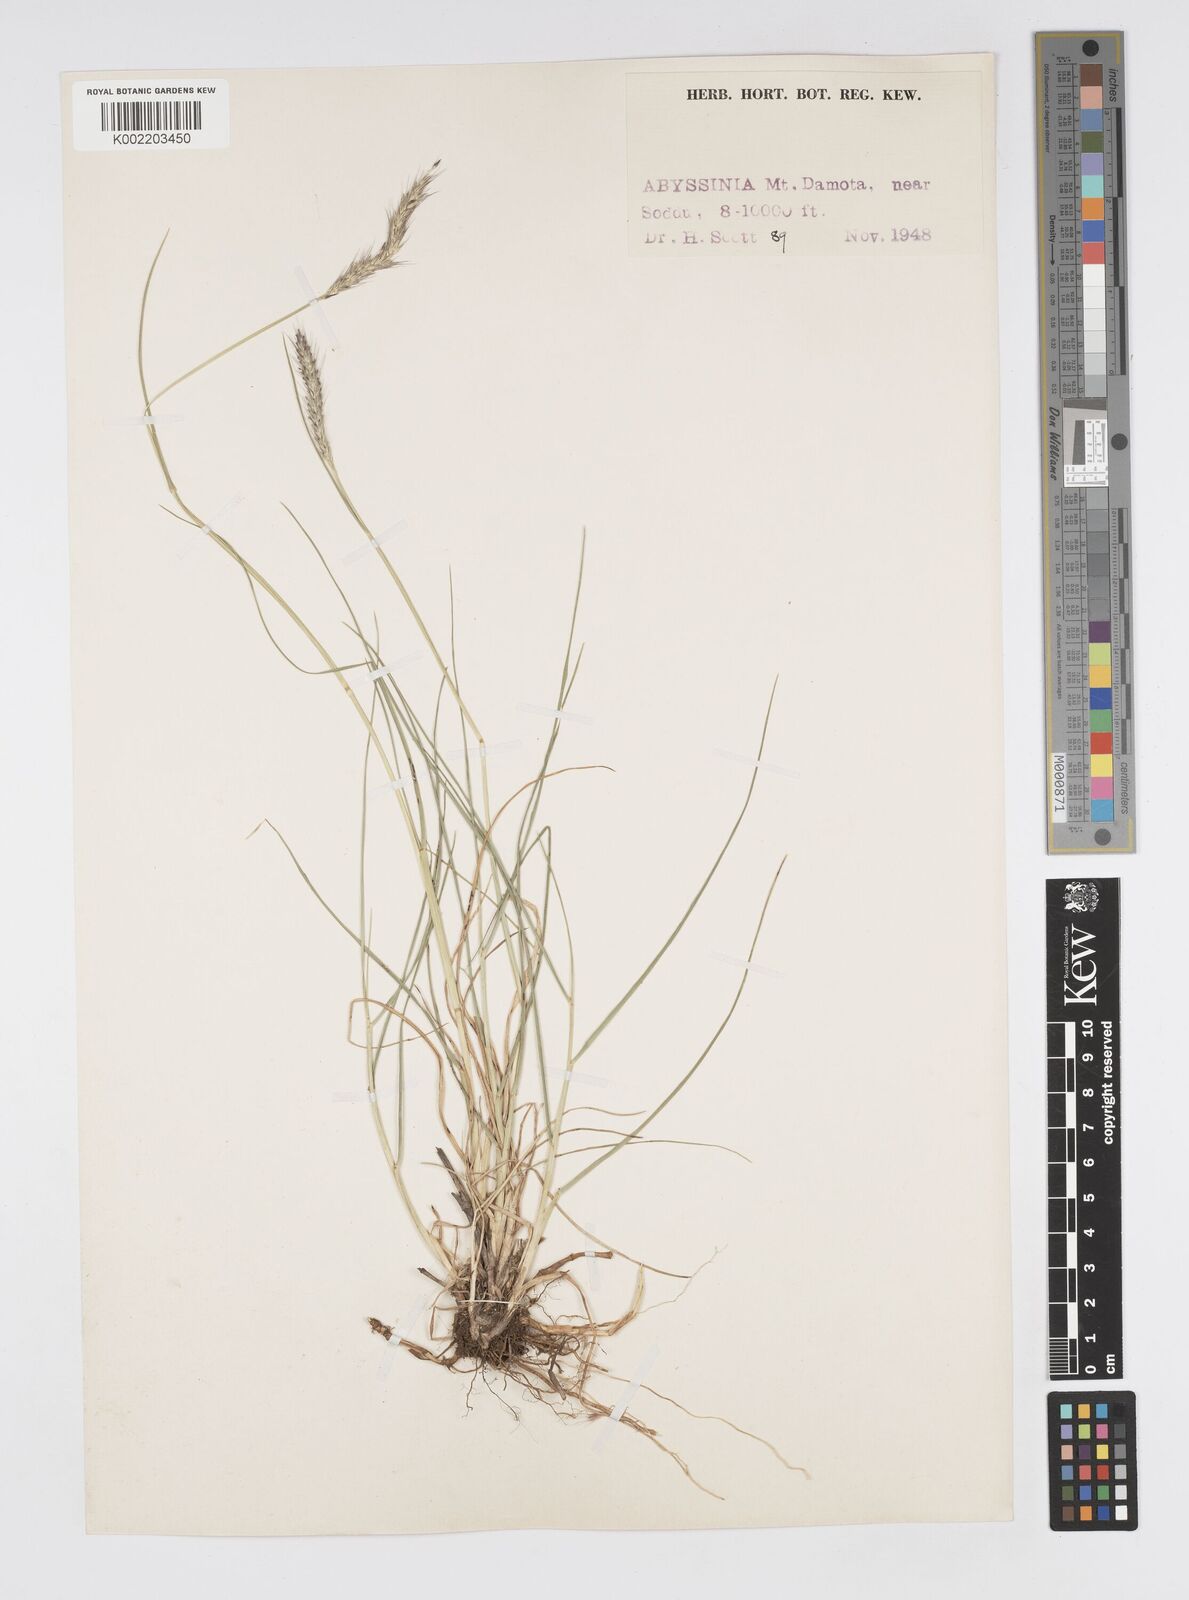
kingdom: Plantae
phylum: Tracheophyta
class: Liliopsida
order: Poales
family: Poaceae
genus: Cenchrus
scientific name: Cenchrus geniculatus
